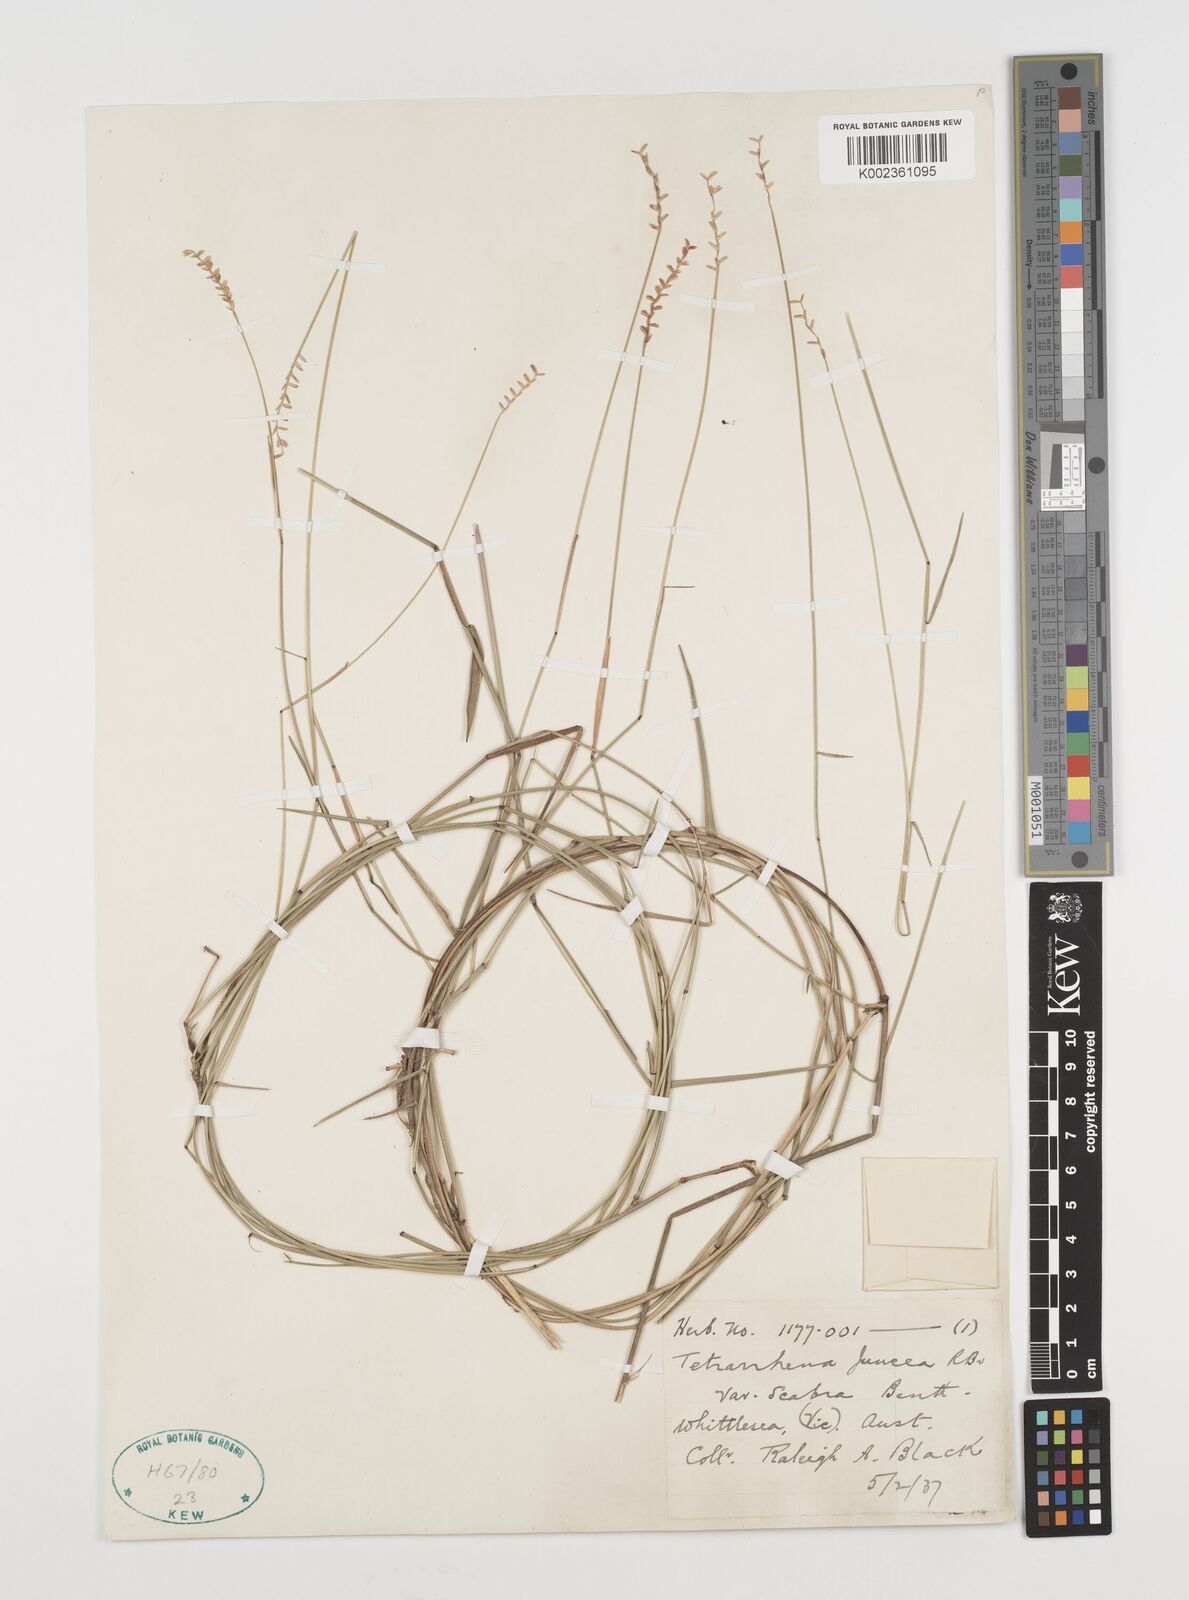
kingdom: Plantae
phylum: Tracheophyta
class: Liliopsida
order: Poales
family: Poaceae
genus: Tetrarrhena
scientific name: Tetrarrhena juncea
